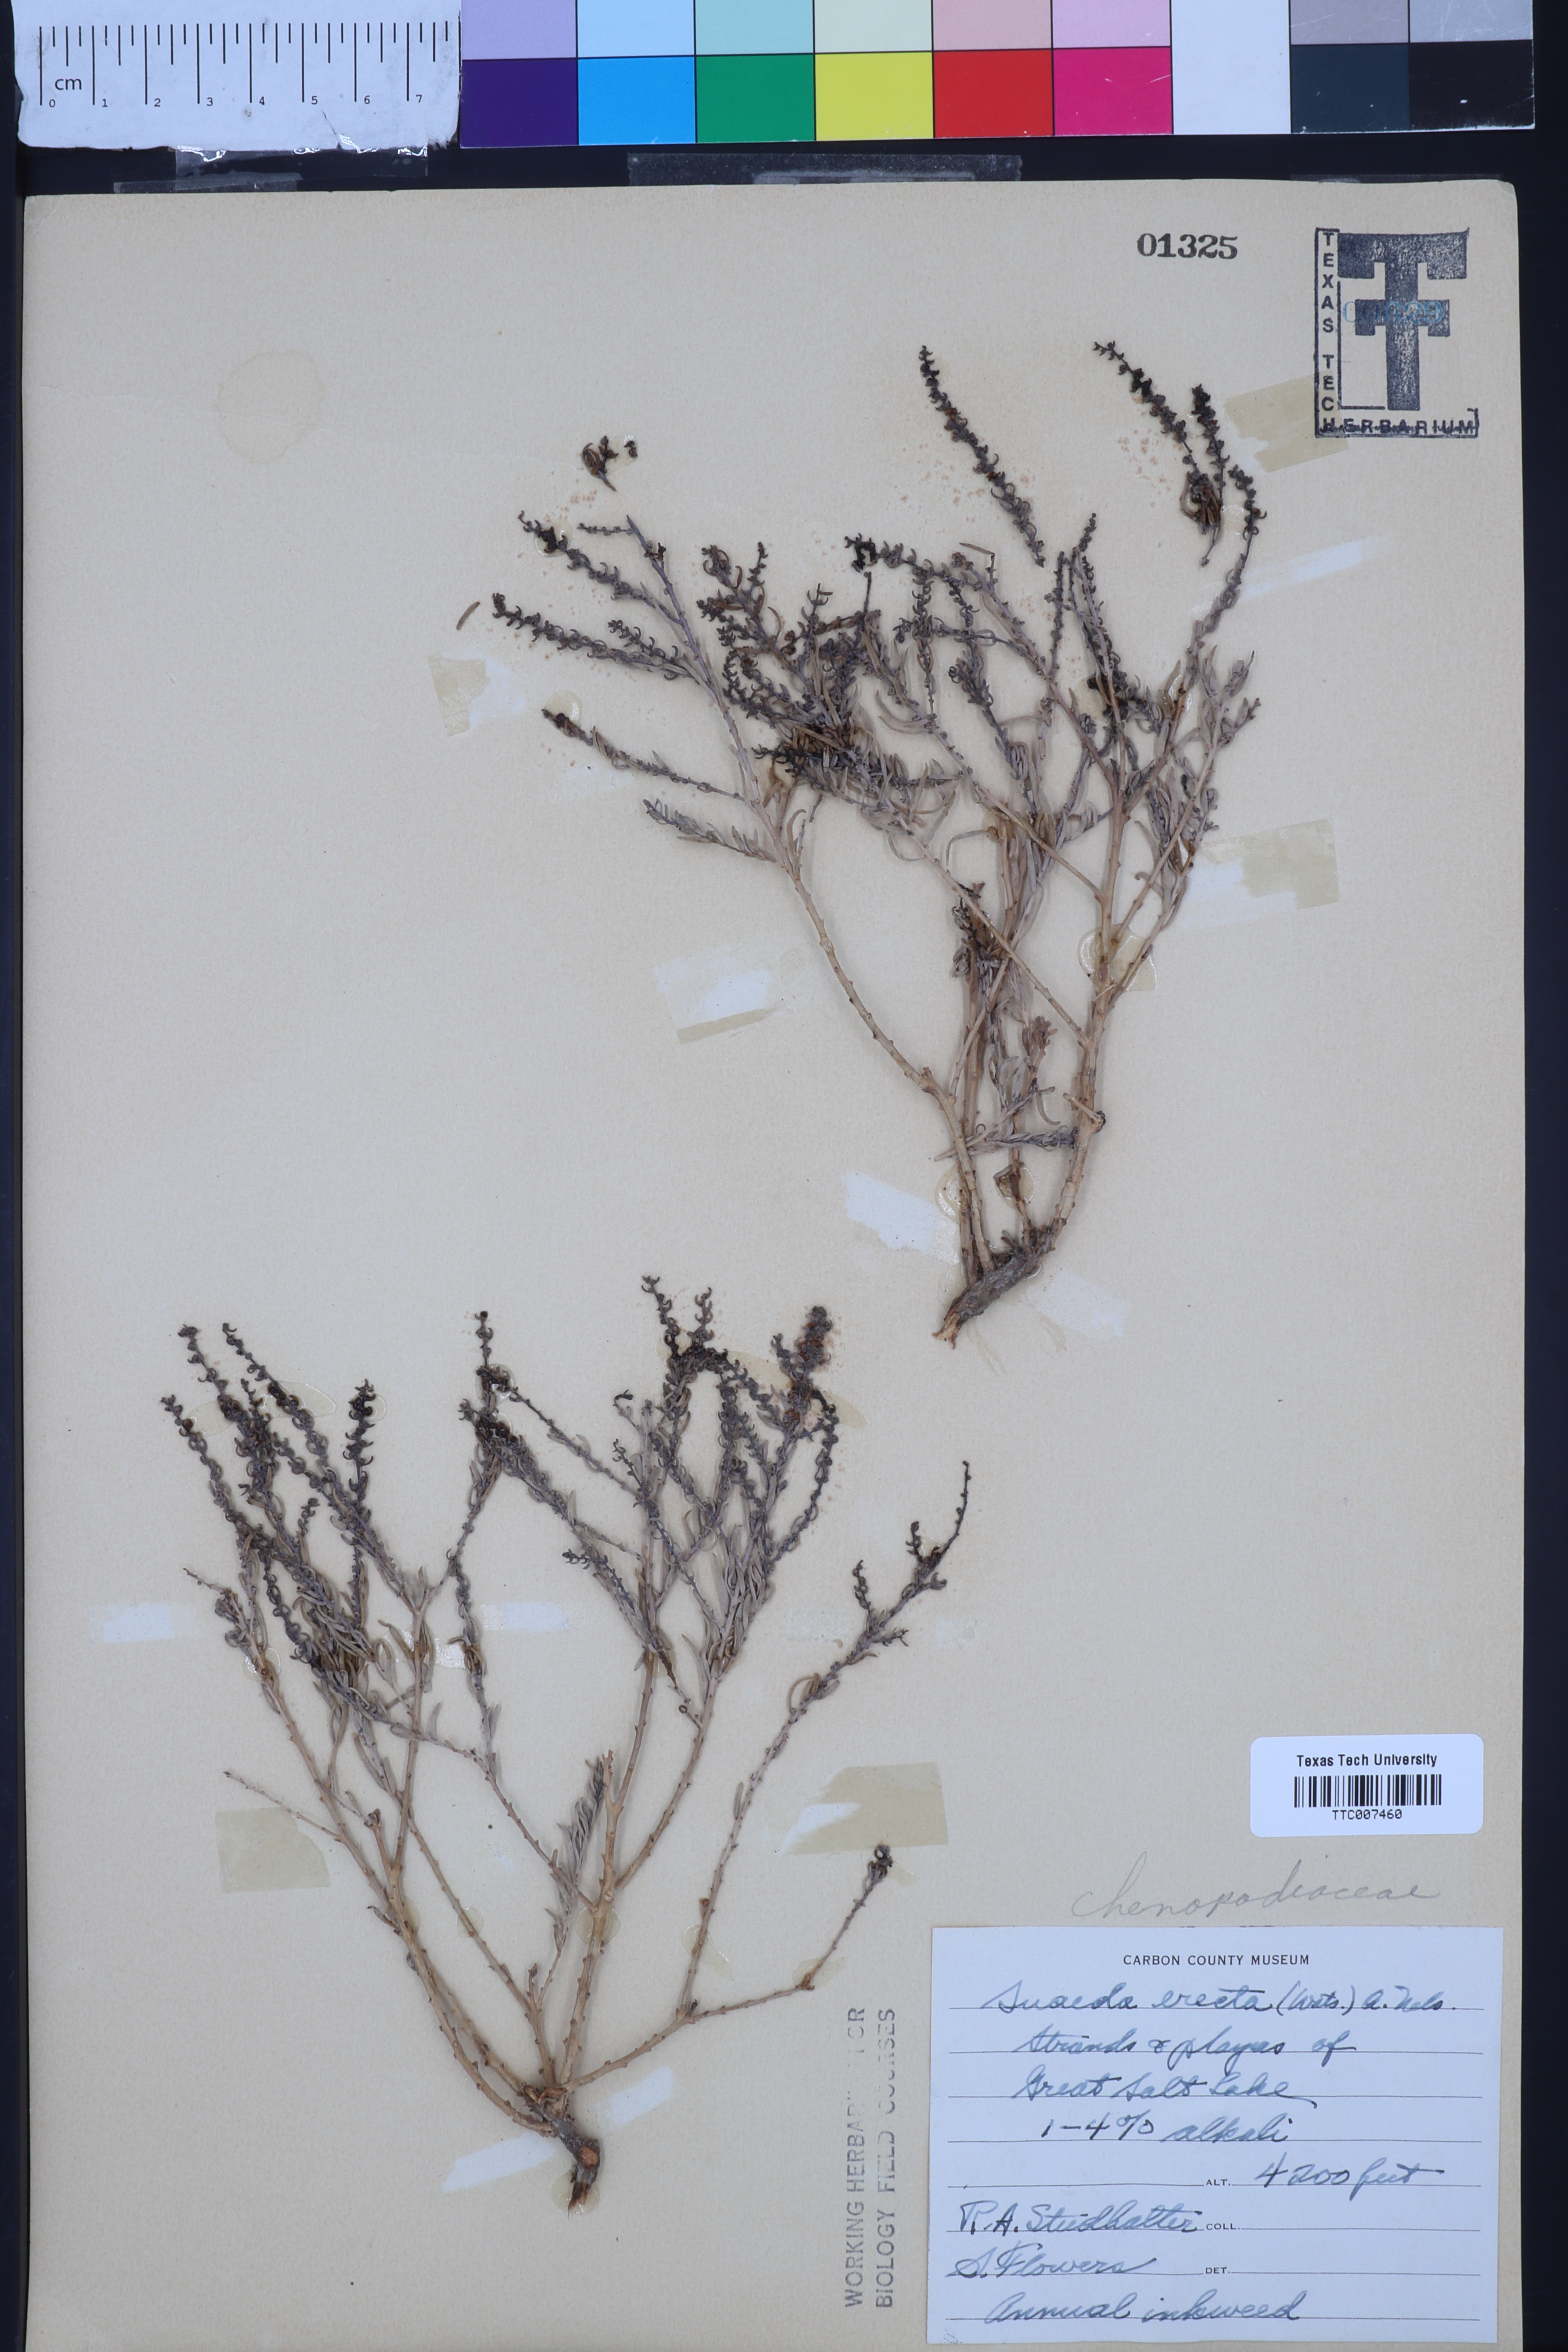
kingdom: Plantae
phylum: Tracheophyta
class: Magnoliopsida
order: Caryophyllales
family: Amaranthaceae
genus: Suaeda
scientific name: Suaeda calceoliformis
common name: Pursh's seepweed
